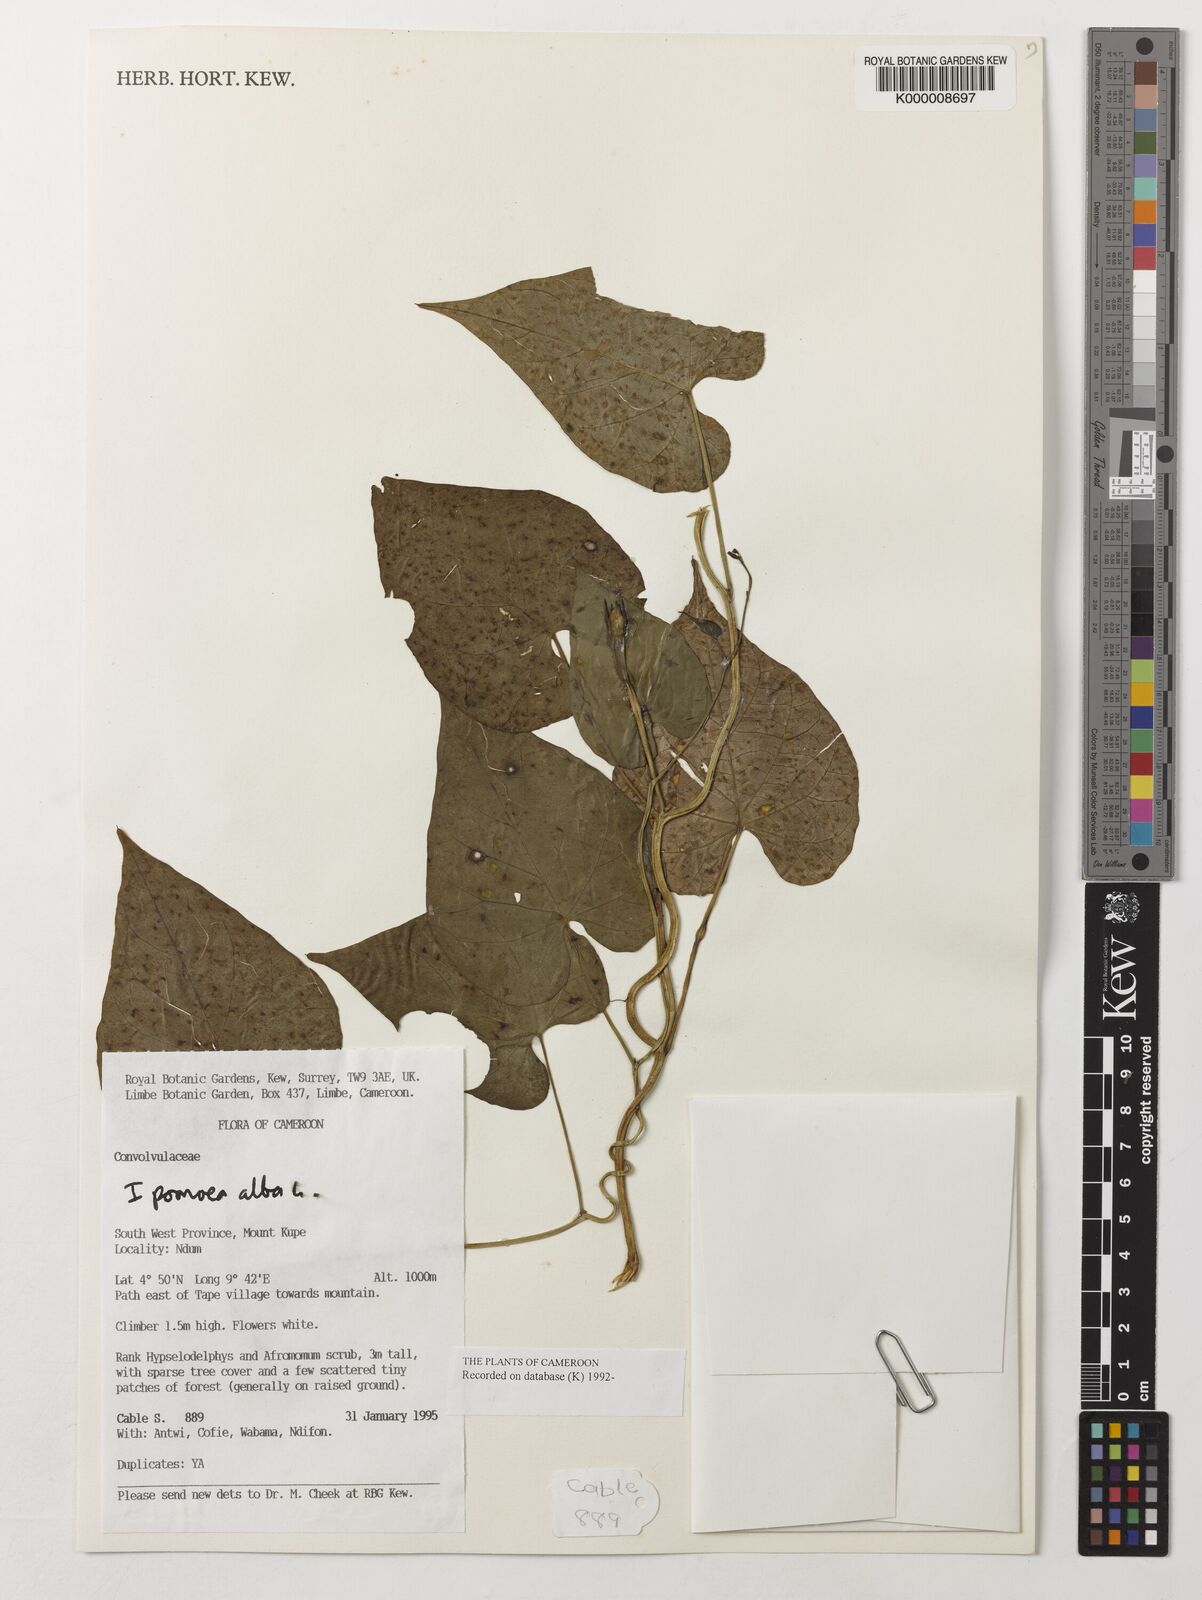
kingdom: Plantae
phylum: Tracheophyta
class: Magnoliopsida
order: Solanales
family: Convolvulaceae
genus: Ipomoea
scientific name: Ipomoea alba
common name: Moonflower
